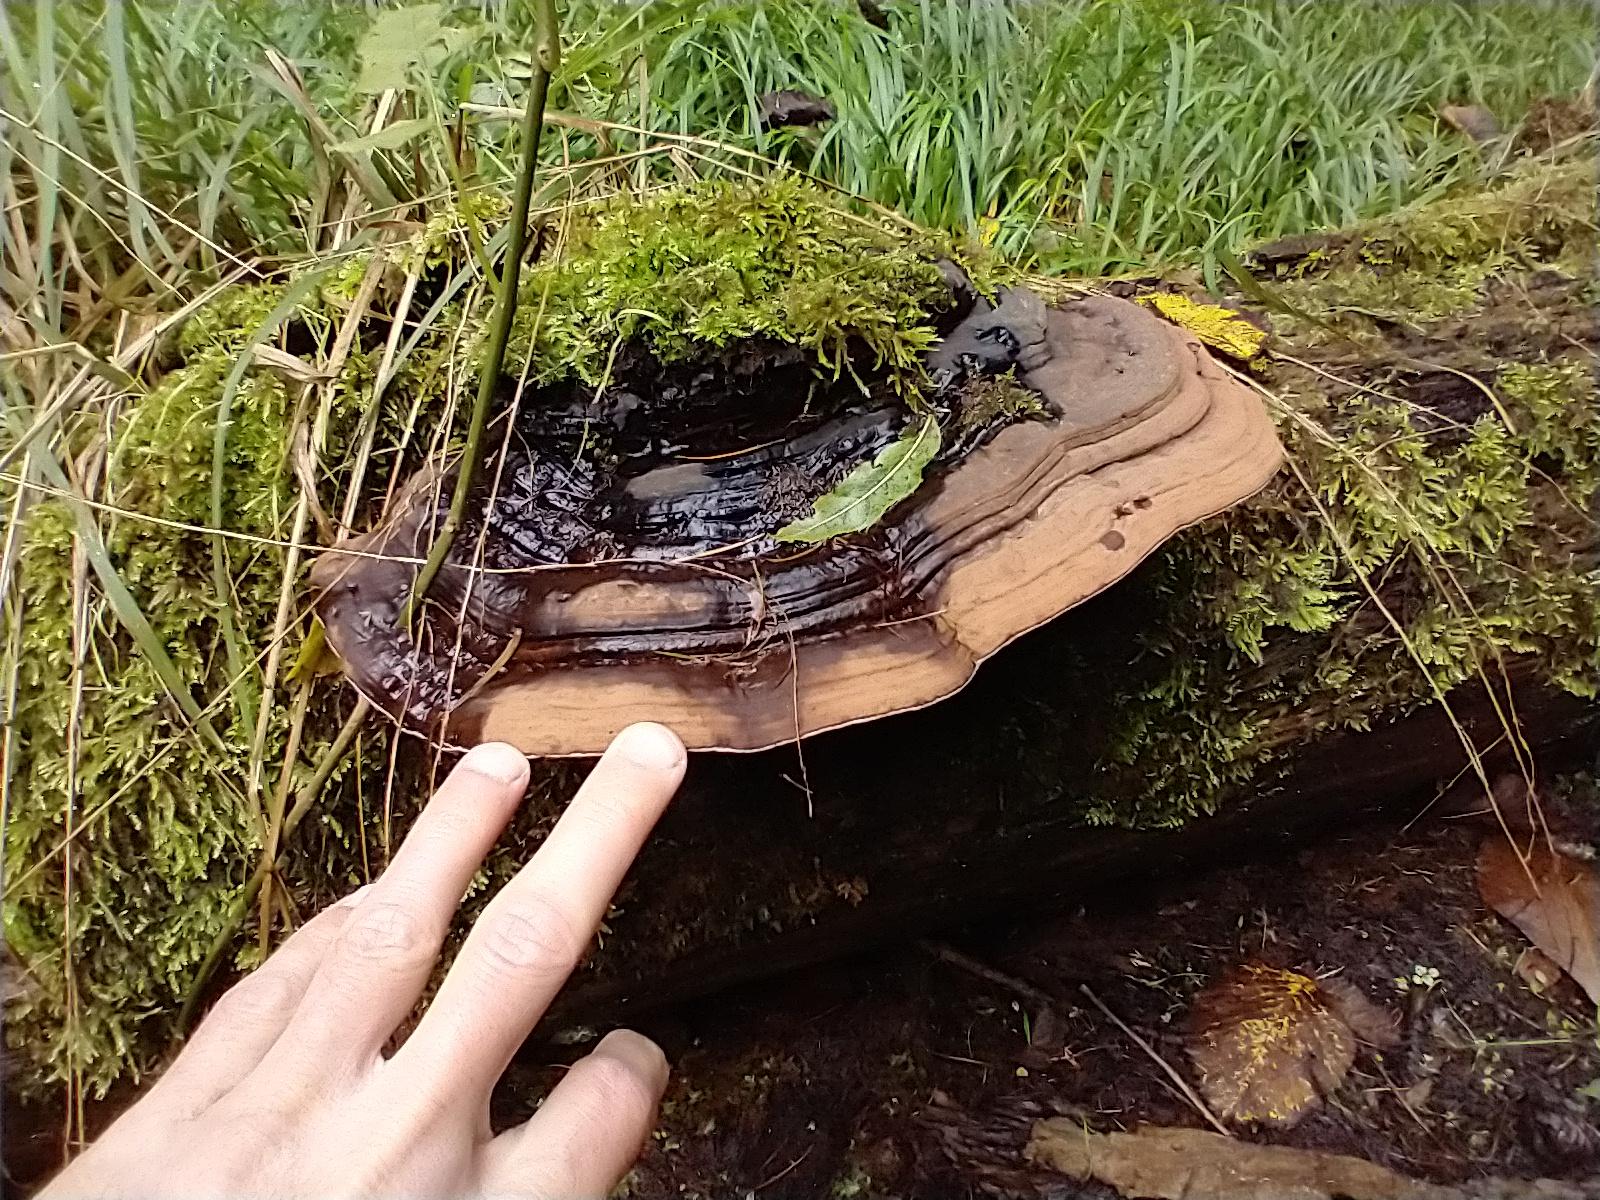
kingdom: Fungi
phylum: Basidiomycota
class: Agaricomycetes
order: Polyporales
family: Polyporaceae
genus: Ganoderma
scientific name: Ganoderma applanatum
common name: flad lakporesvamp
